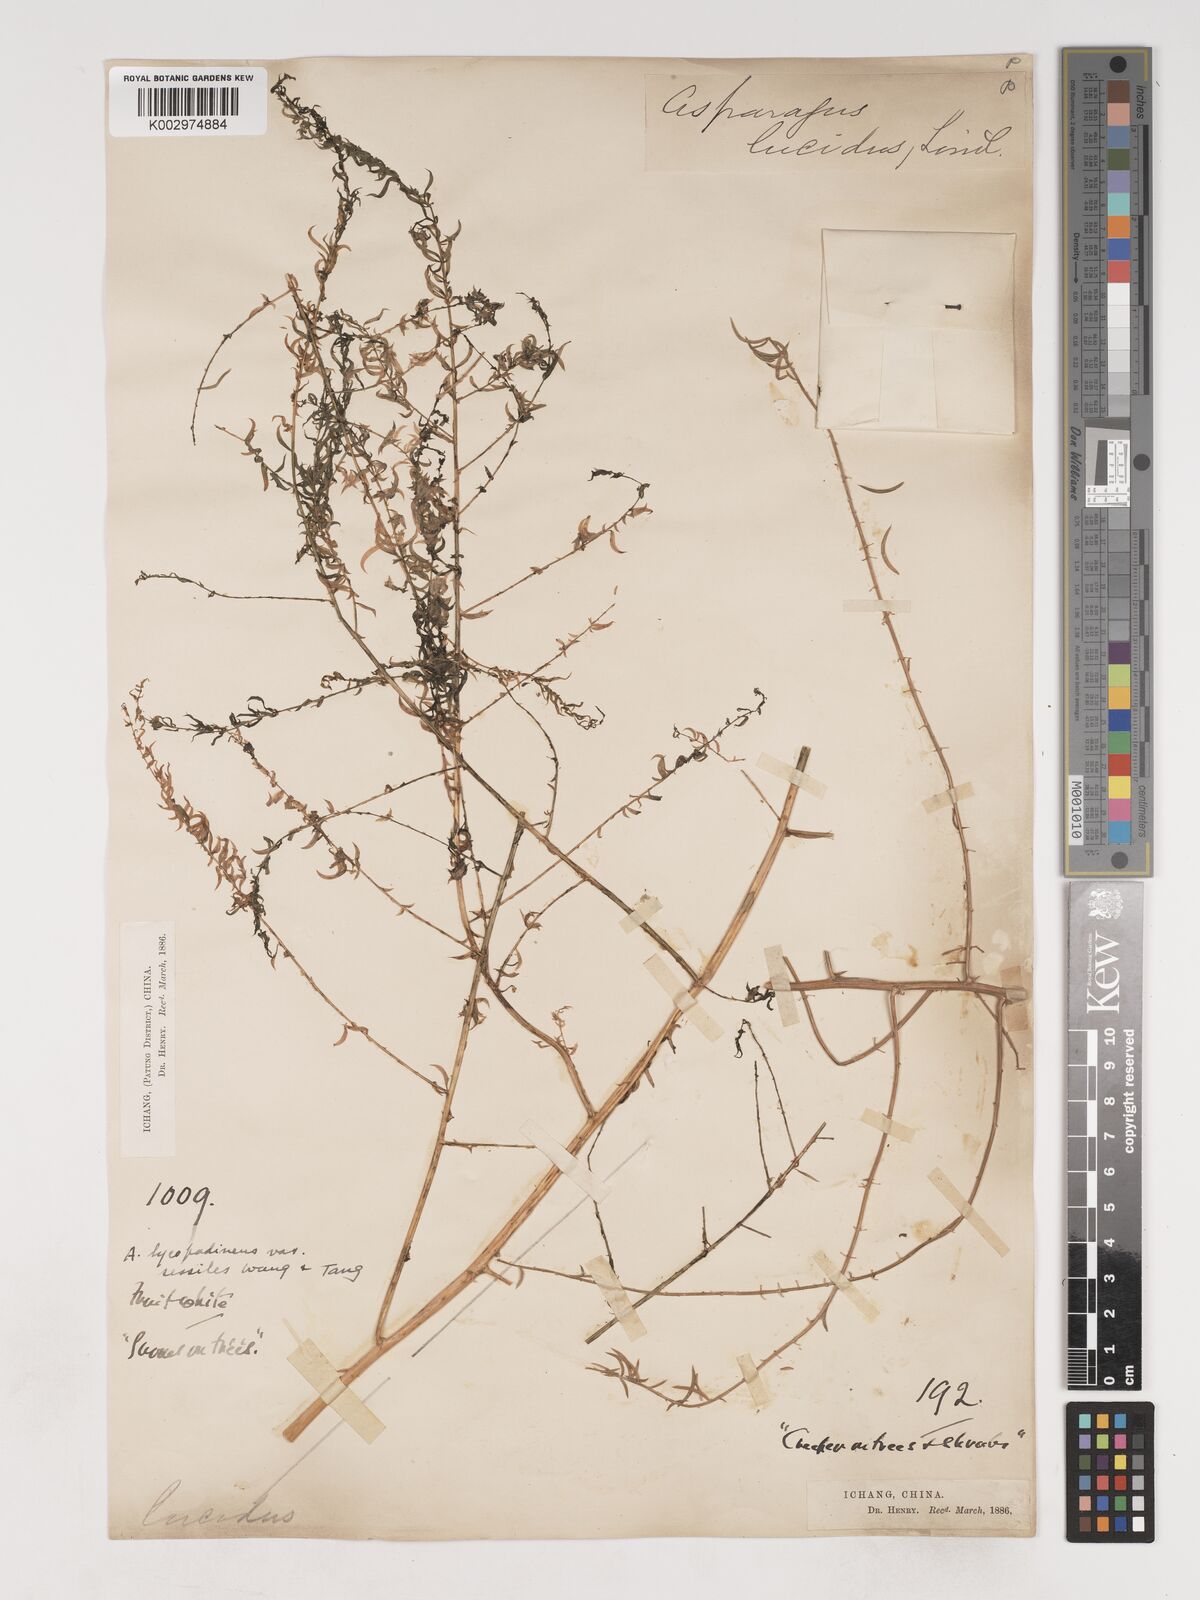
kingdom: Plantae
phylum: Tracheophyta
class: Liliopsida
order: Asparagales
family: Asparagaceae
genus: Asparagus
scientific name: Asparagus lycopodineus
